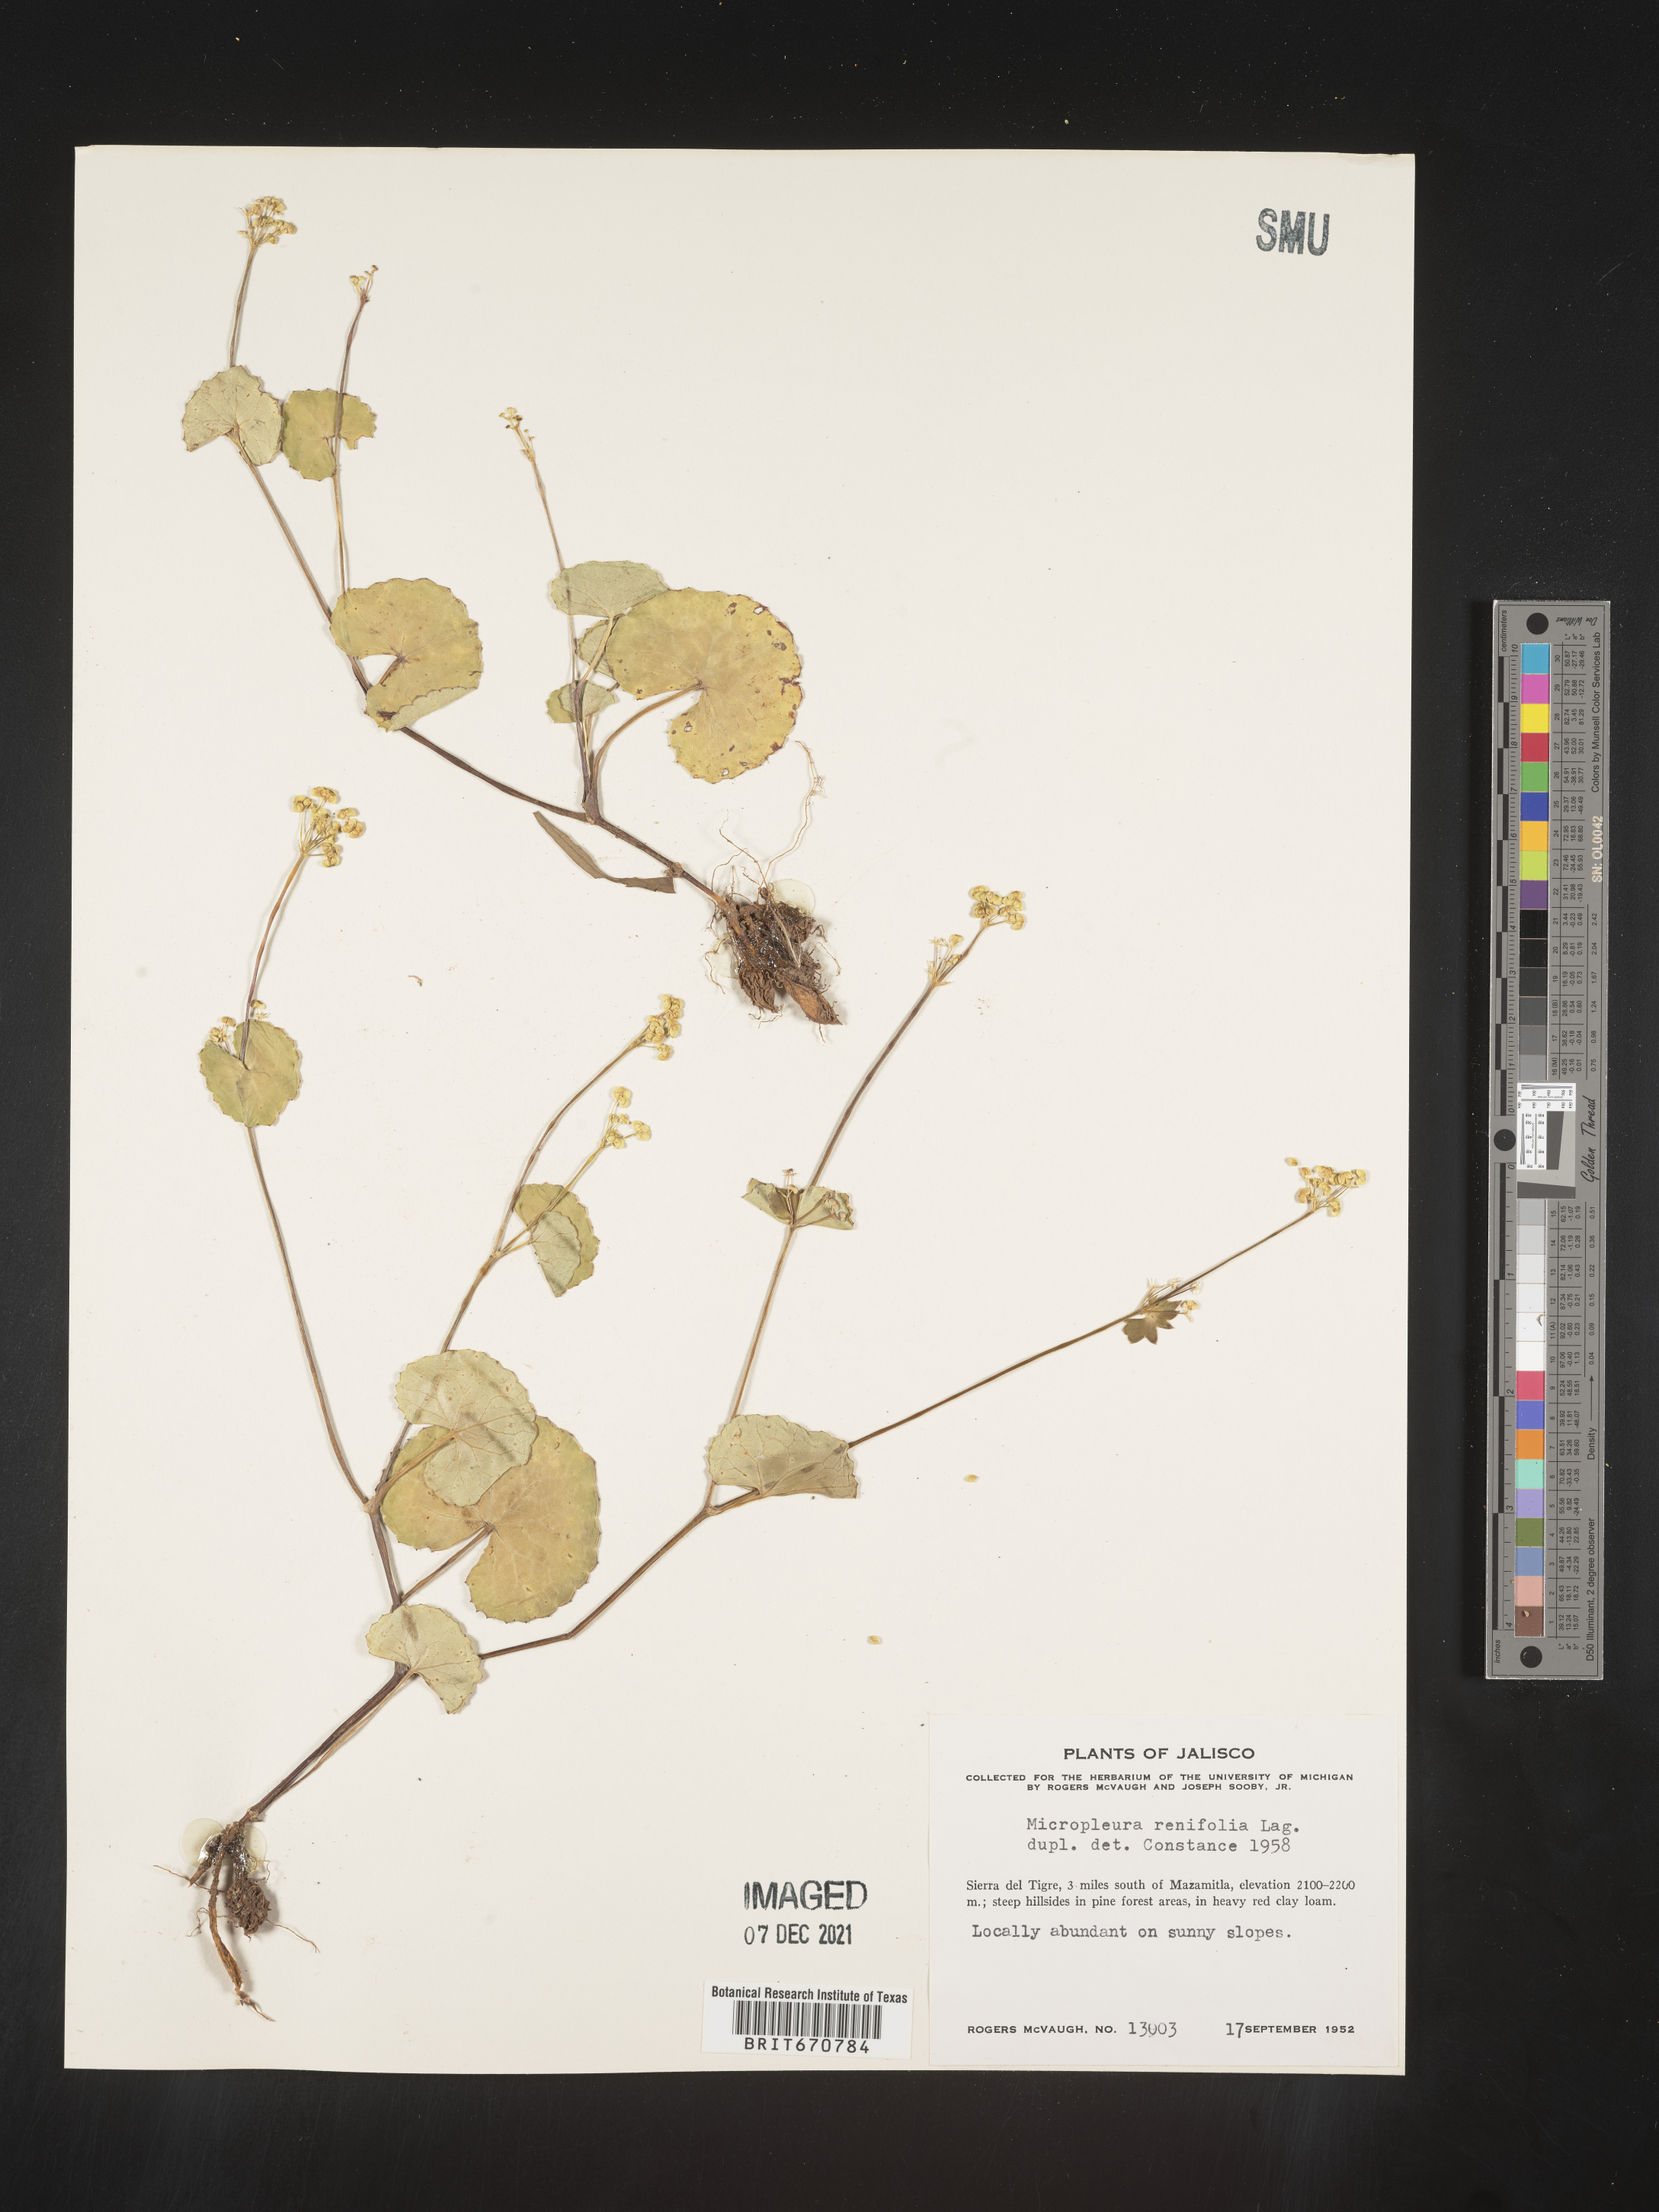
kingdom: Plantae
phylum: Tracheophyta
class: Magnoliopsida
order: Apiales
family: Apiaceae
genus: Micropleura
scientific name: Micropleura
